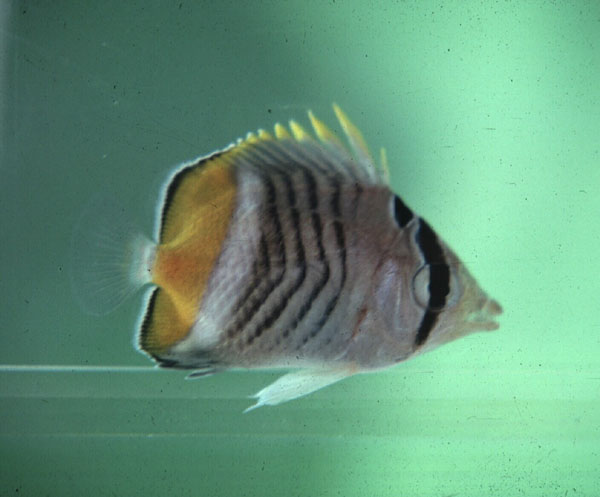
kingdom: Animalia
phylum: Chordata
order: Perciformes
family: Chaetodontidae
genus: Chaetodon
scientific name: Chaetodon madagaskariensis
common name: Madagascar butterflyfish
